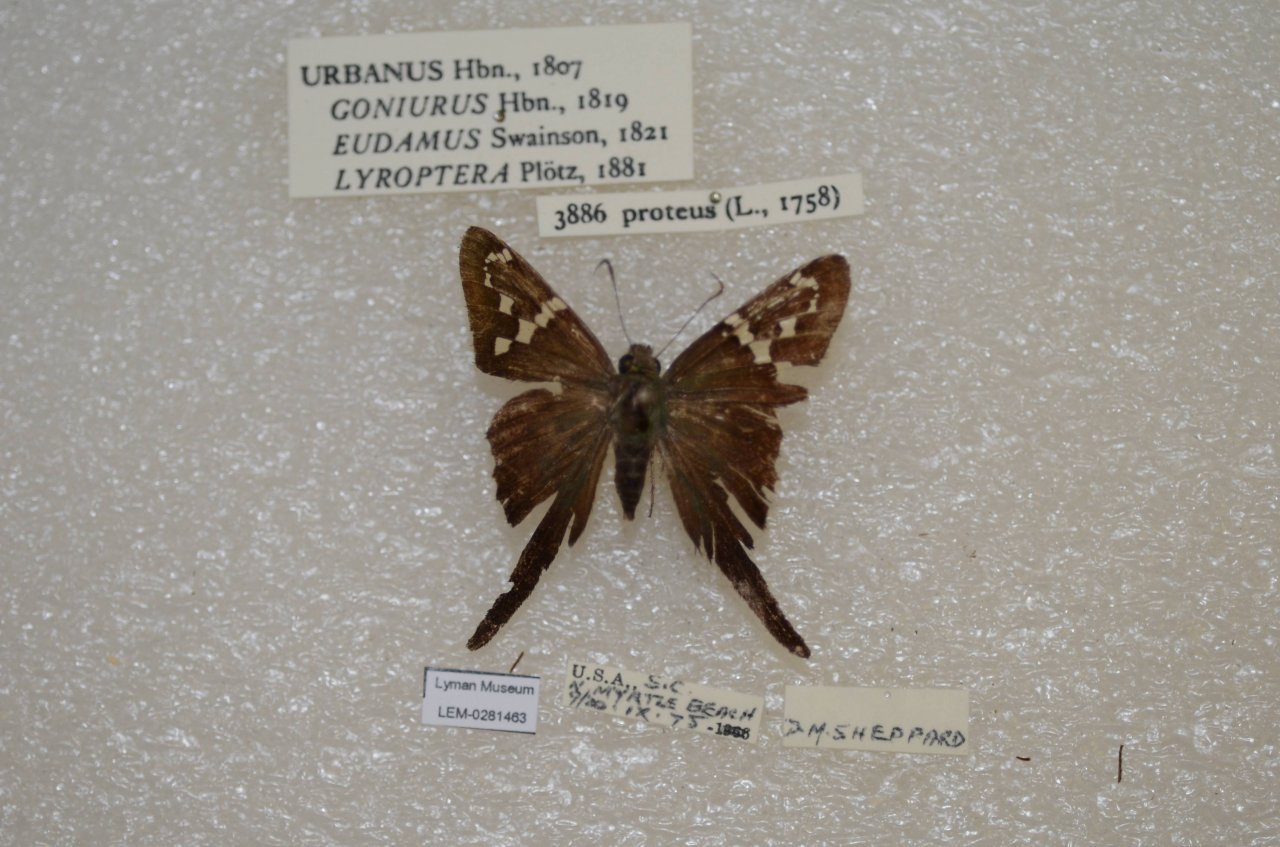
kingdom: Animalia
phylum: Arthropoda
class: Insecta
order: Lepidoptera
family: Hesperiidae
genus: Urbanus
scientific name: Urbanus proteus
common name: Long-tailed Skipper
